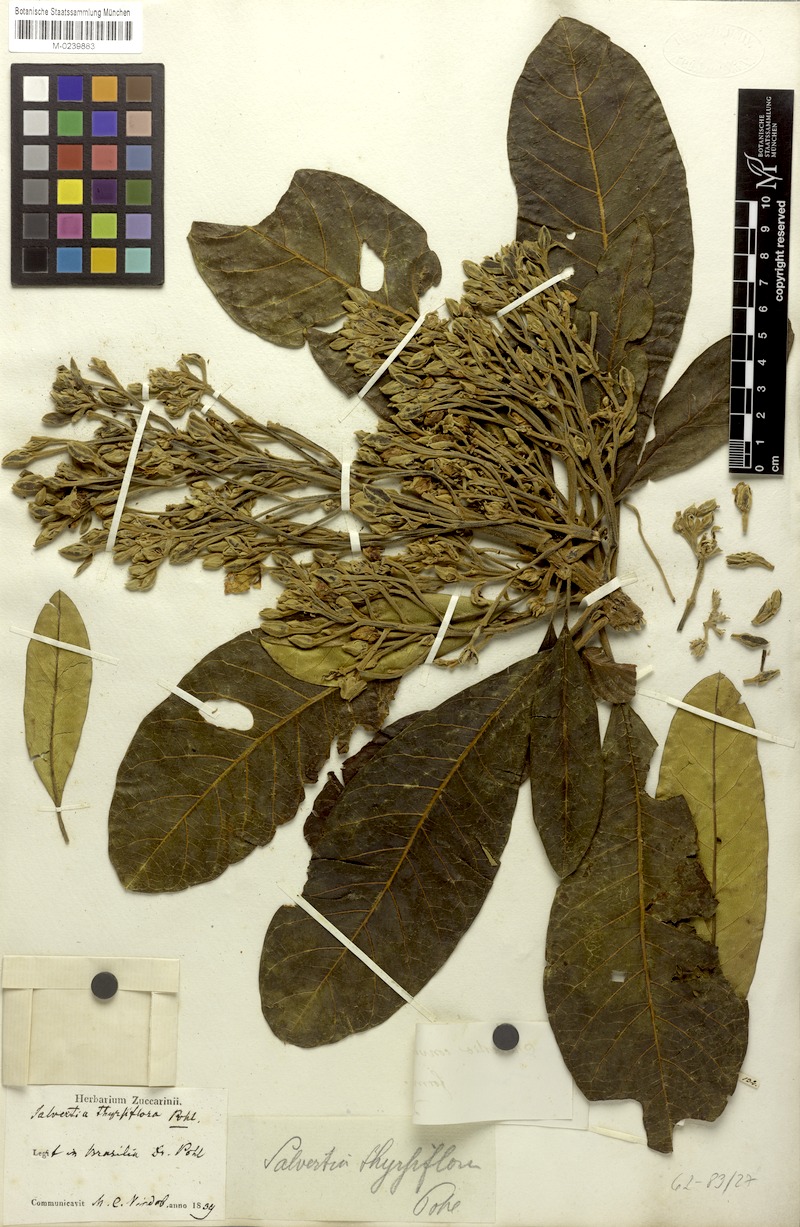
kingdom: Plantae
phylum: Tracheophyta
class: Magnoliopsida
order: Myrtales
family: Vochysiaceae
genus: Salvertia
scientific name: Salvertia convallariodora
